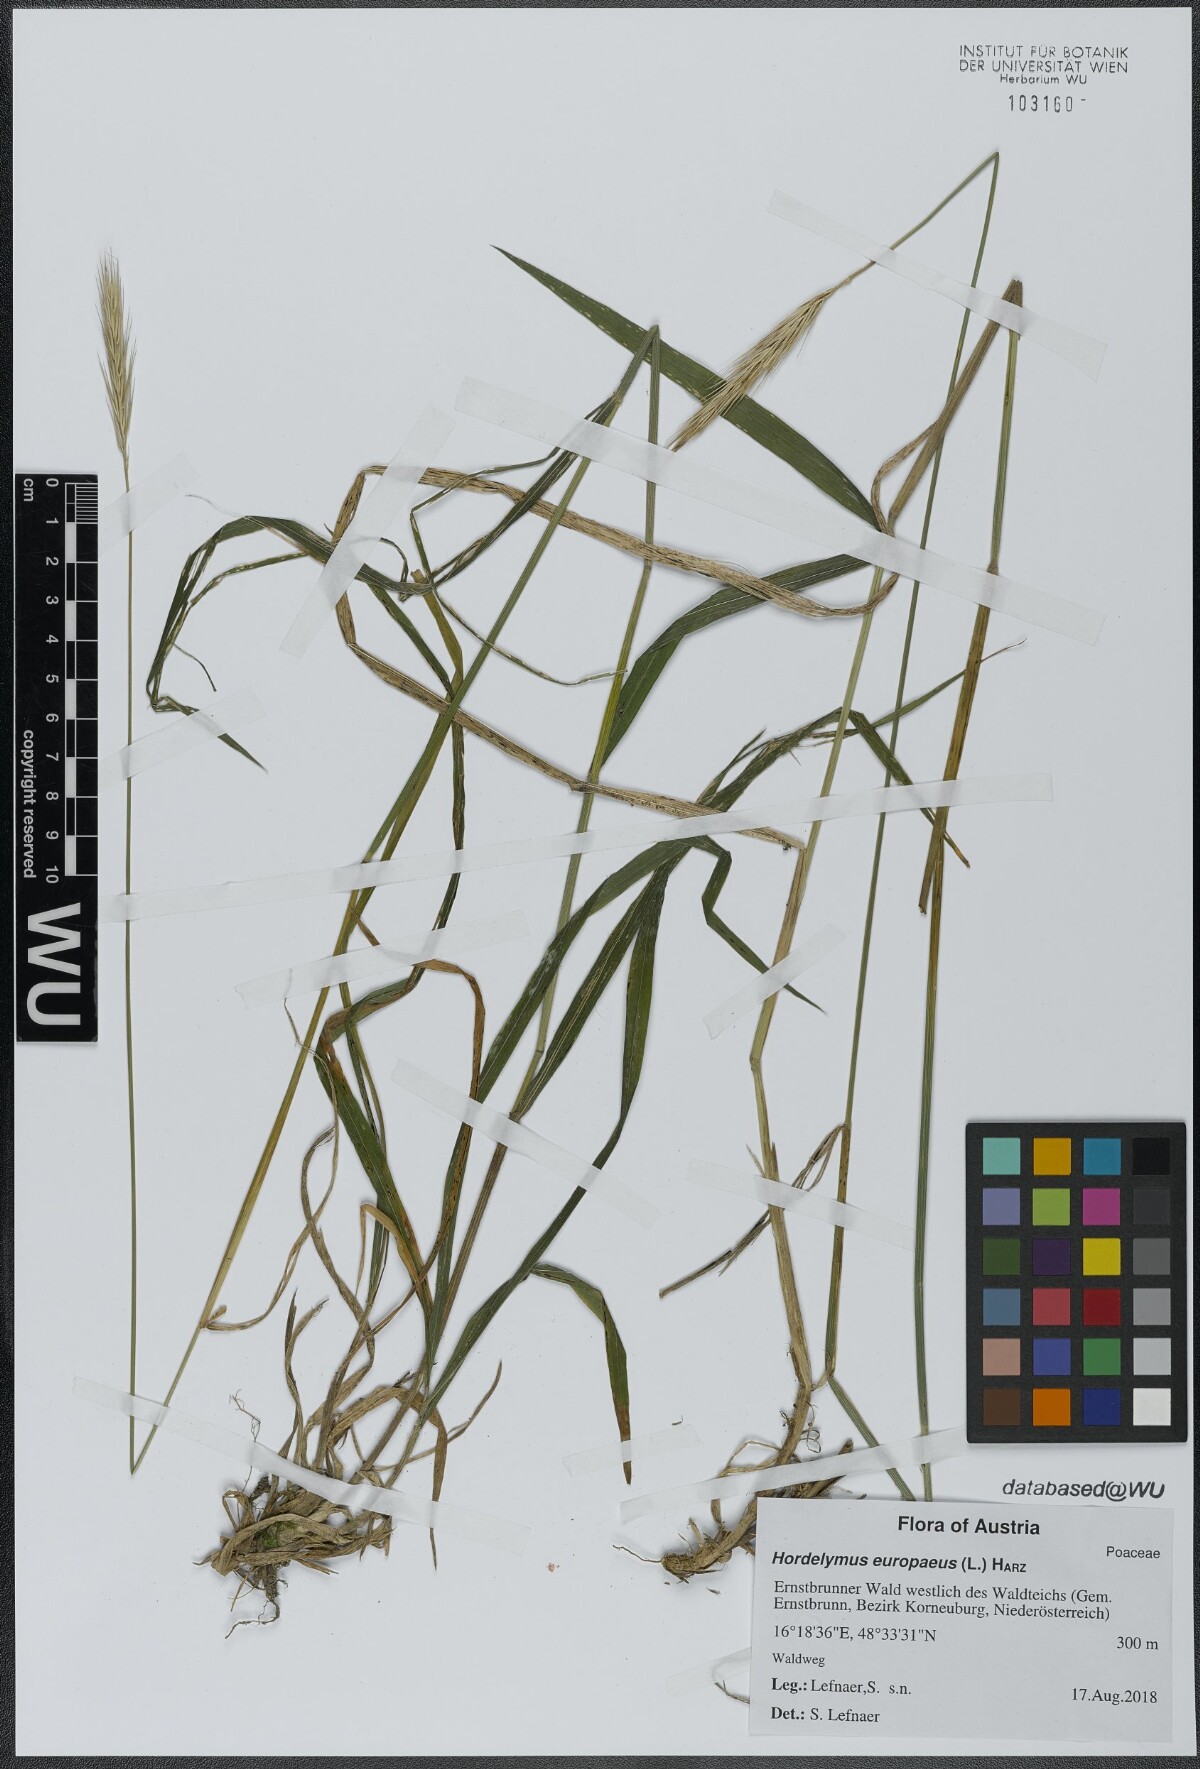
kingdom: Plantae
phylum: Tracheophyta
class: Liliopsida
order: Poales
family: Poaceae
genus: Hordelymus
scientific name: Hordelymus europaeus
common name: Wood-barley
